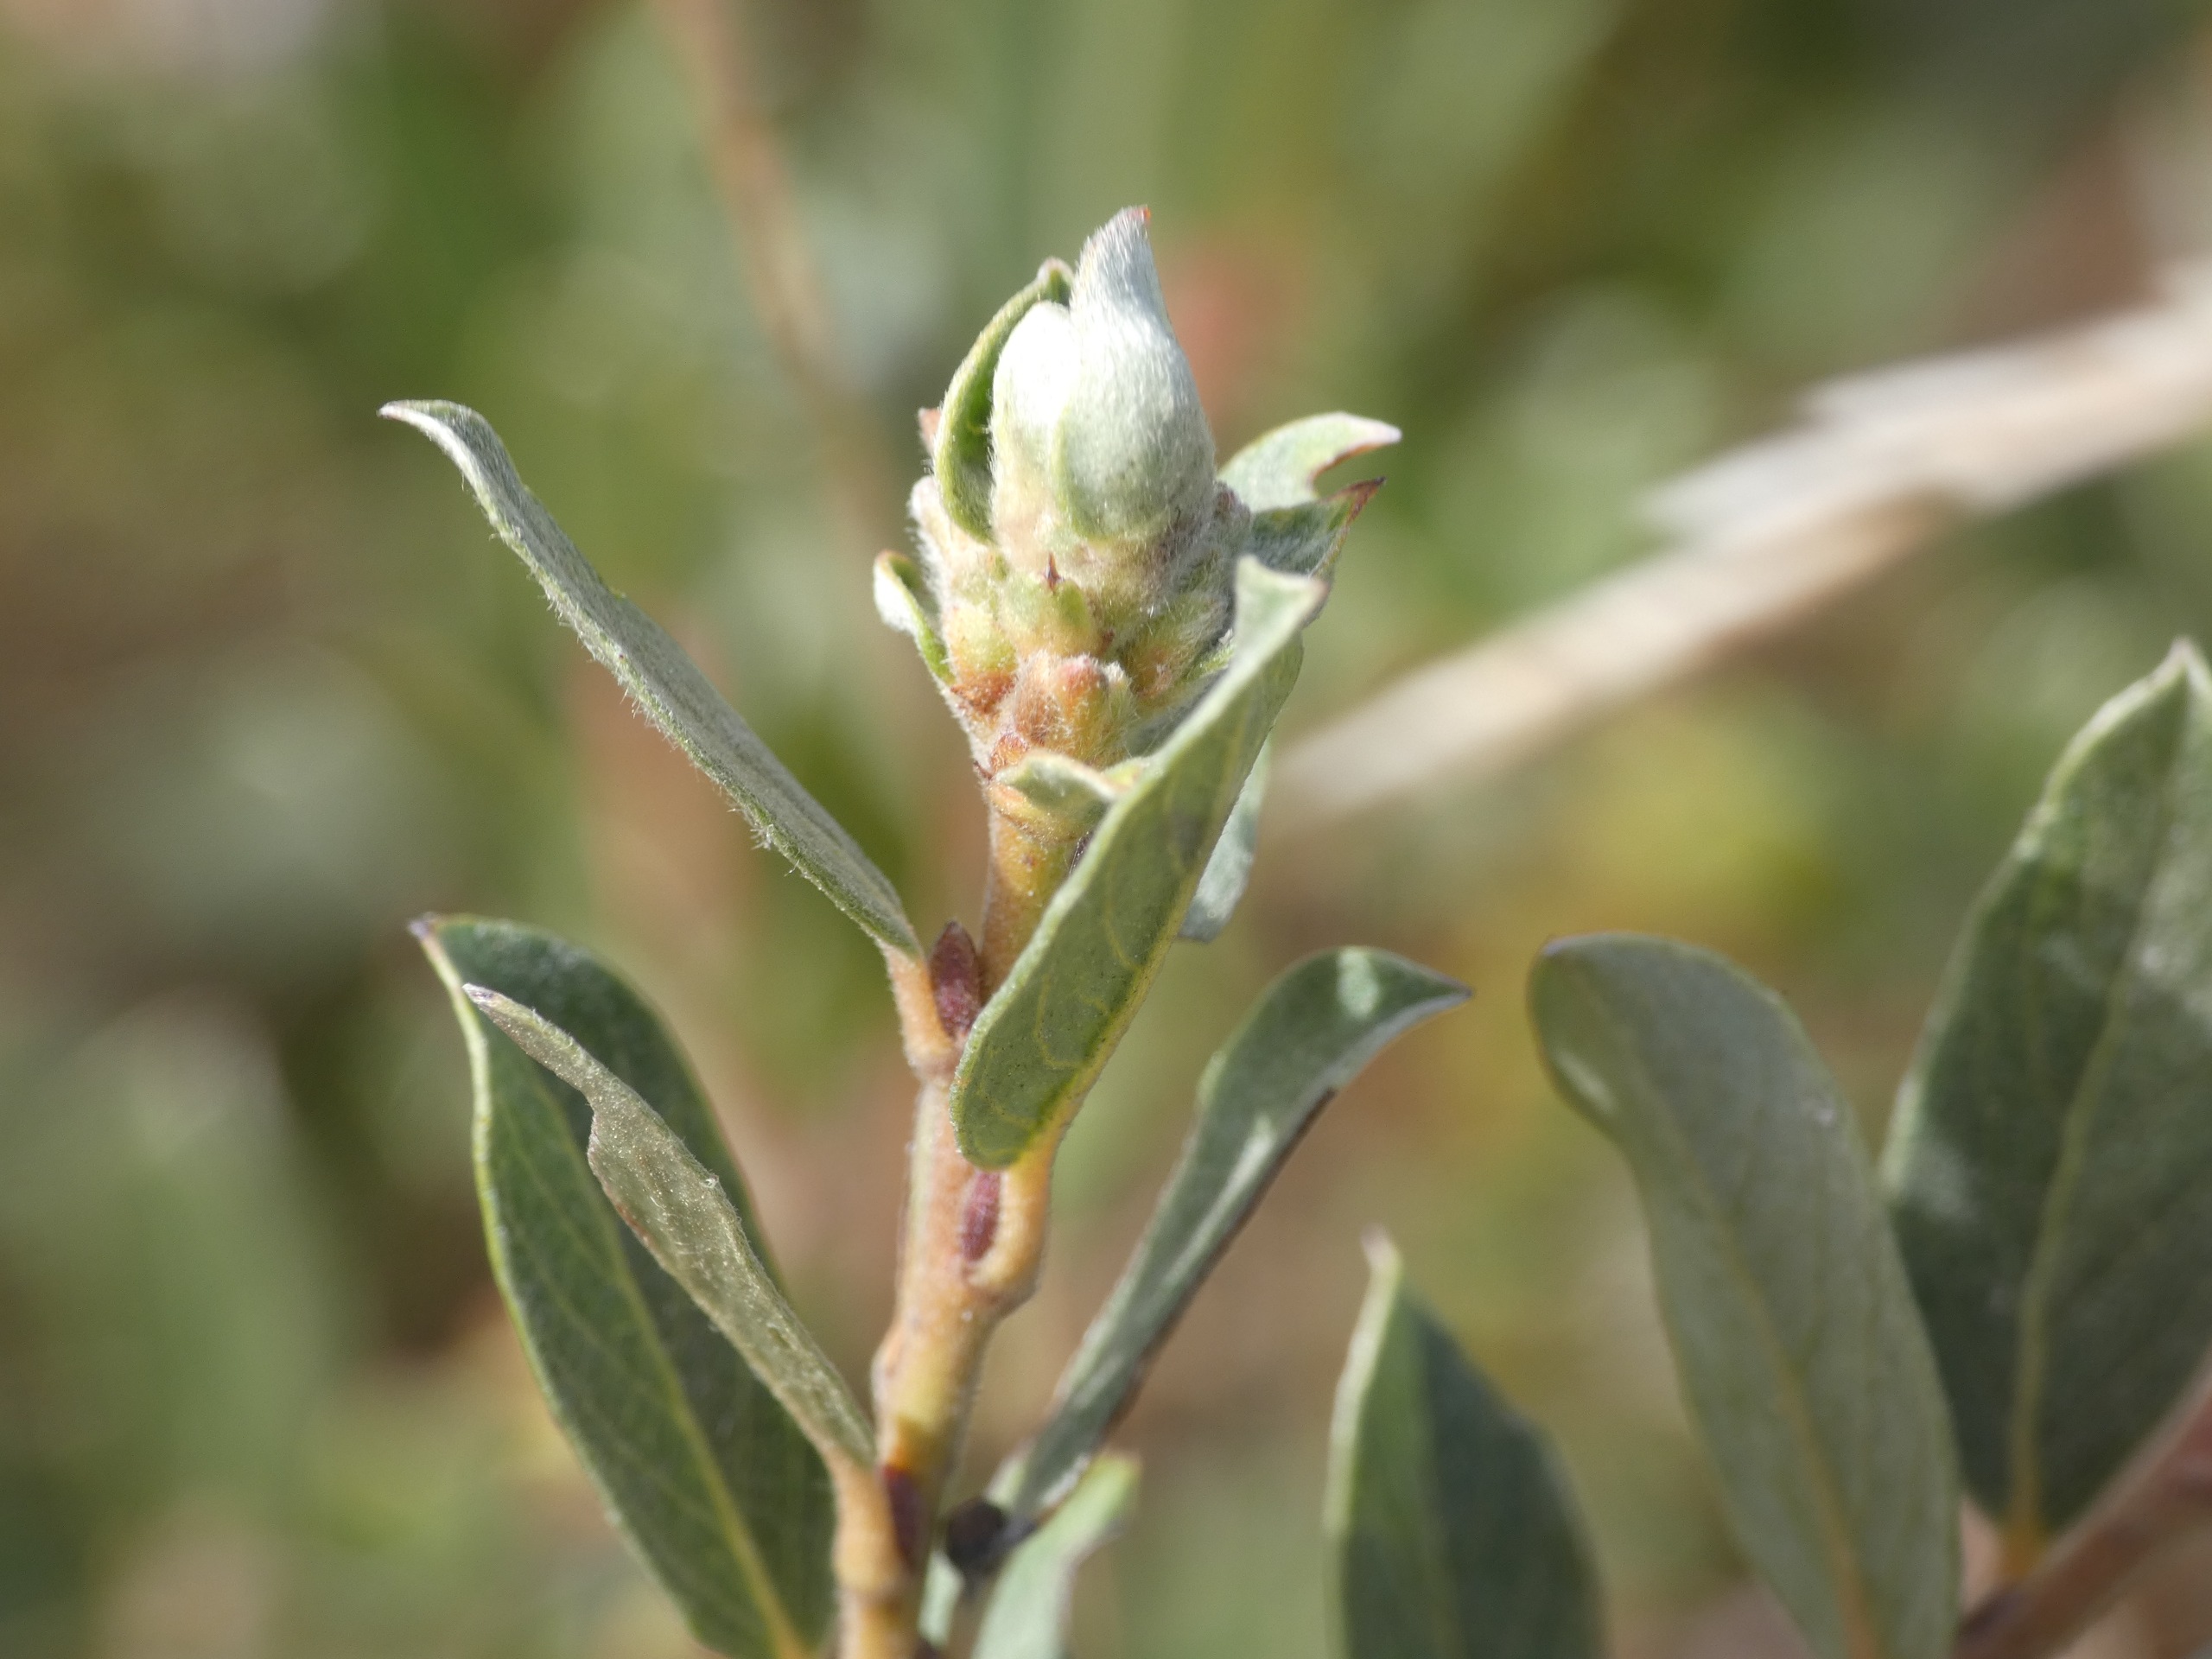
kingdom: Plantae
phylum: Tracheophyta
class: Magnoliopsida
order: Malpighiales
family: Salicaceae
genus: Salix
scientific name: Salix repens
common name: Gråris
